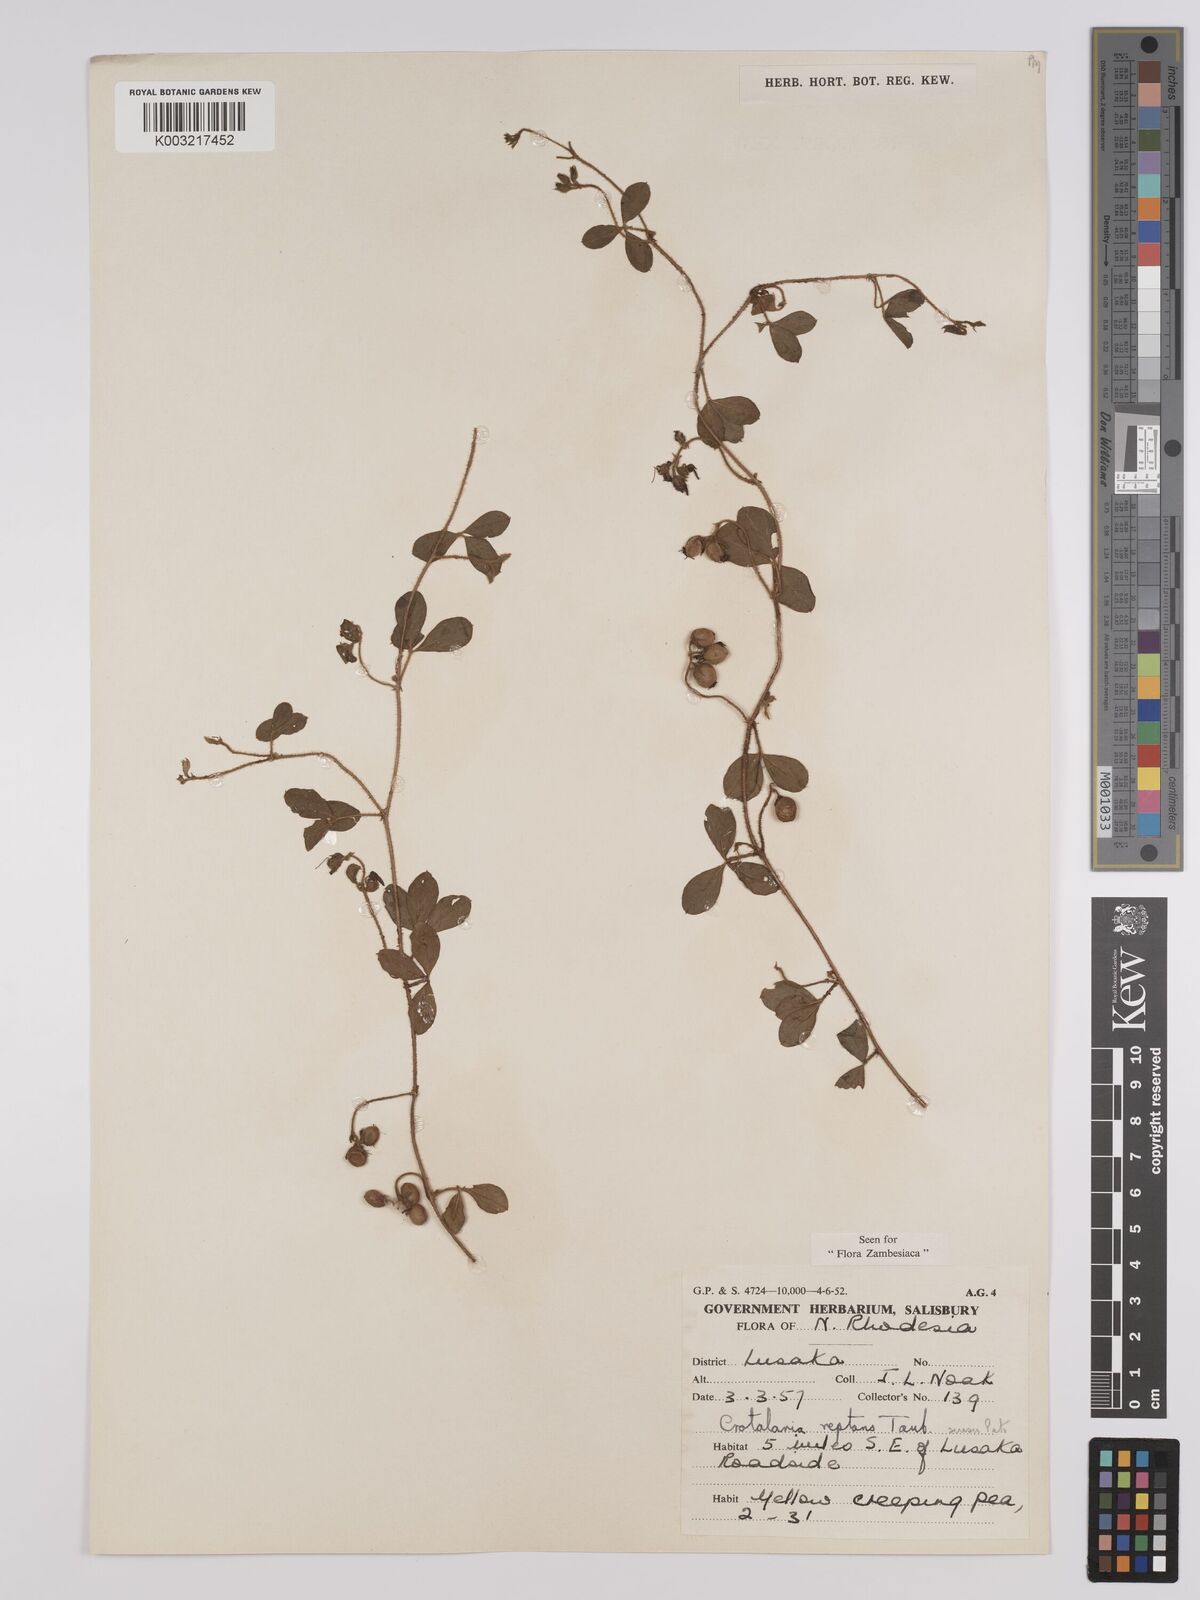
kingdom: Plantae
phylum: Tracheophyta
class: Magnoliopsida
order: Fabales
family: Fabaceae
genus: Crotalaria
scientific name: Crotalaria reptans
